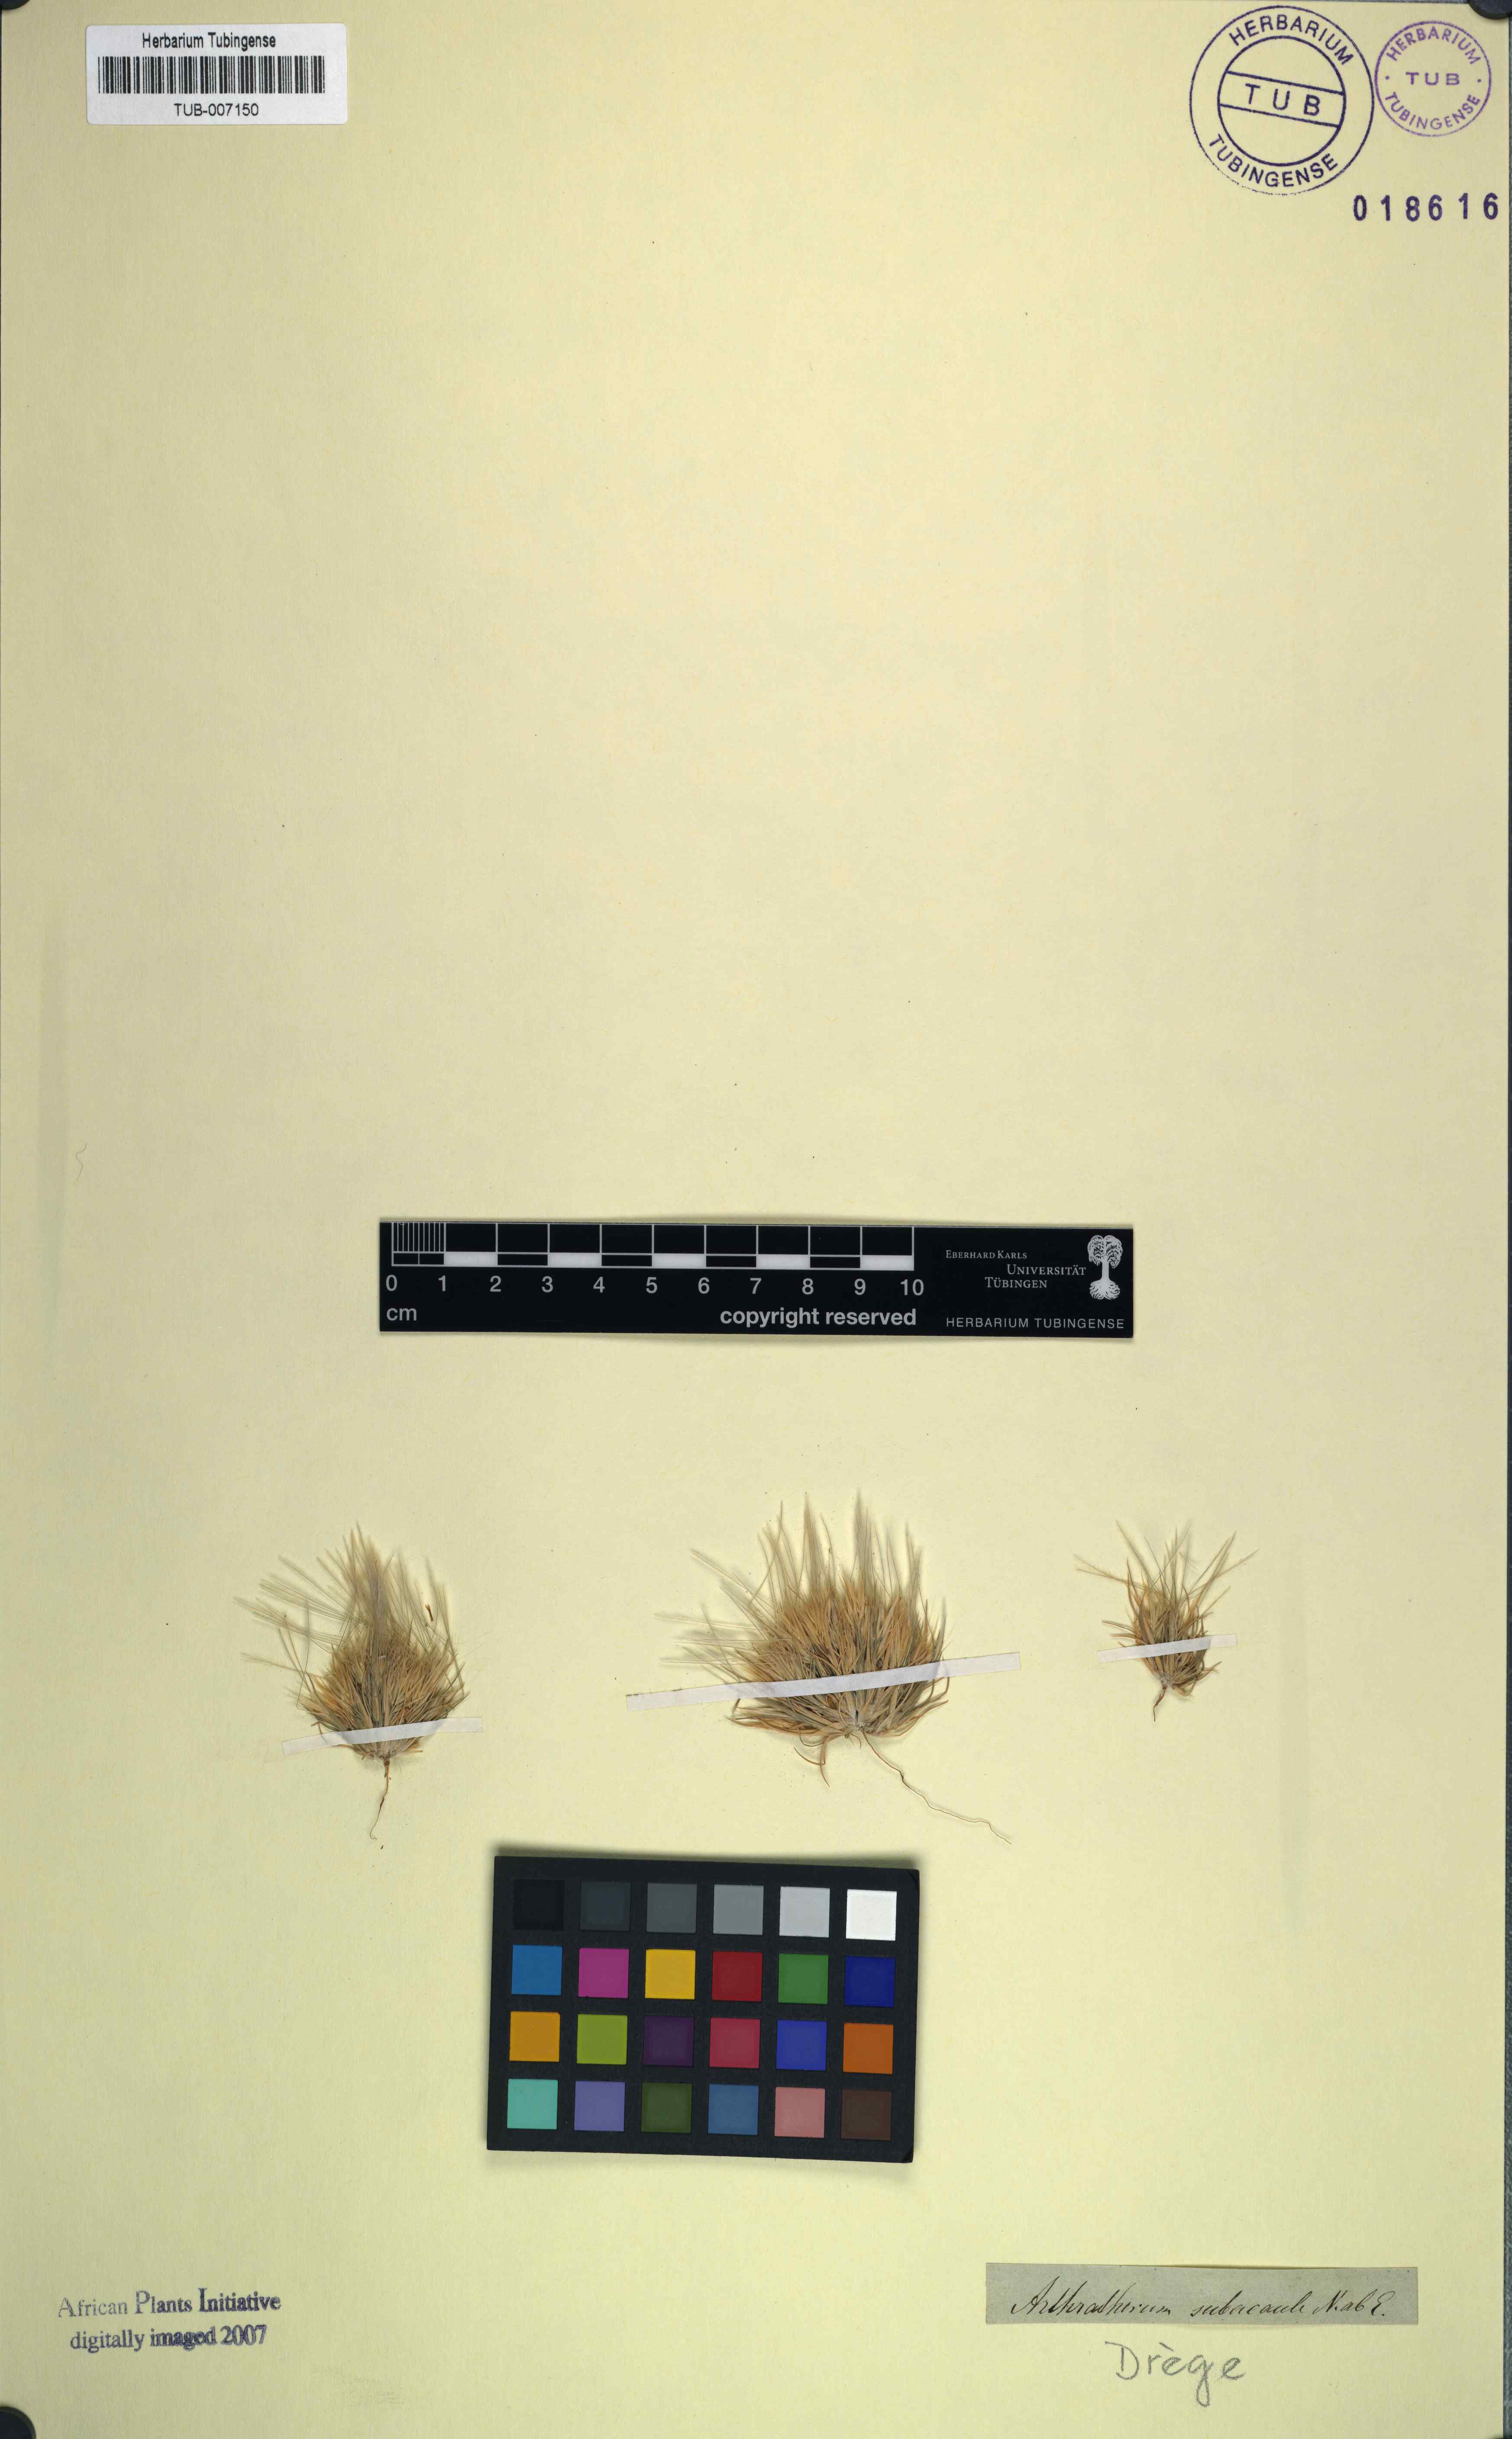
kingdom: Plantae
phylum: Tracheophyta
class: Liliopsida
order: Poales
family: Poaceae
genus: Stipagrostis
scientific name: Stipagrostis subacaulis
